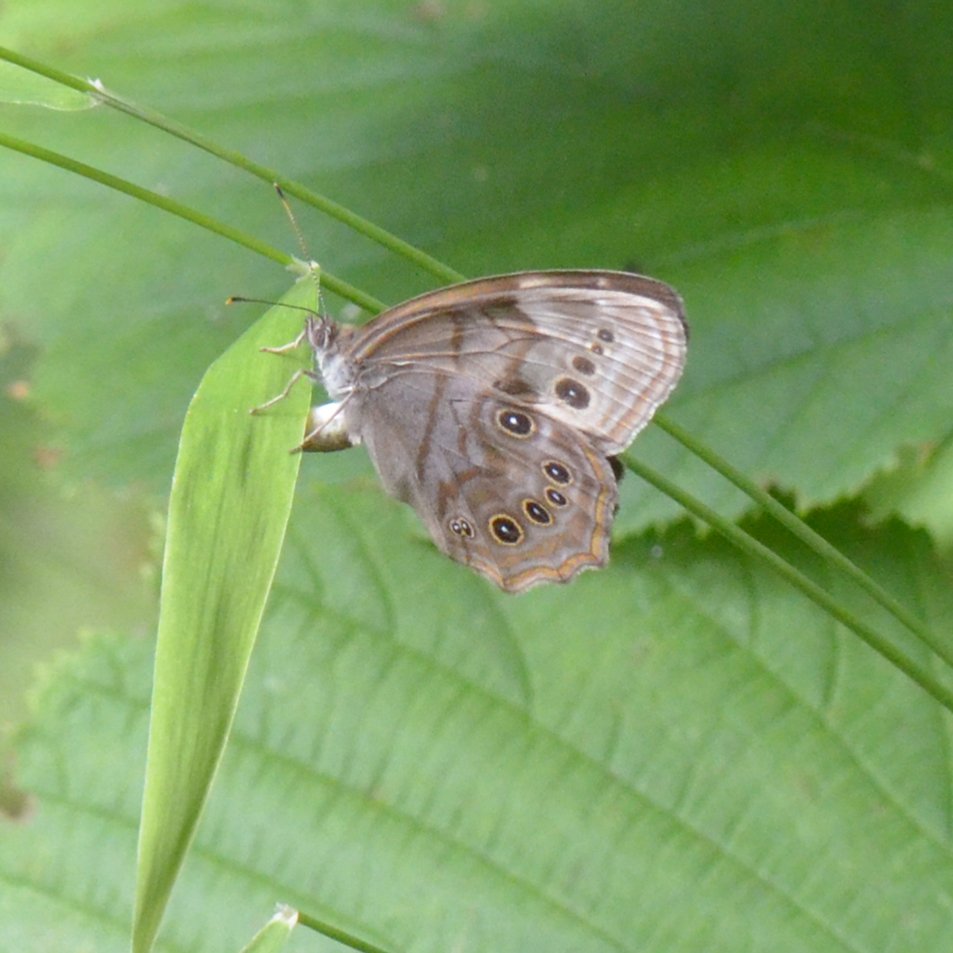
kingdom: Animalia
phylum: Arthropoda
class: Insecta
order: Lepidoptera
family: Nymphalidae
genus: Lethe
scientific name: Lethe anthedon
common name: Northern Pearly-Eye
